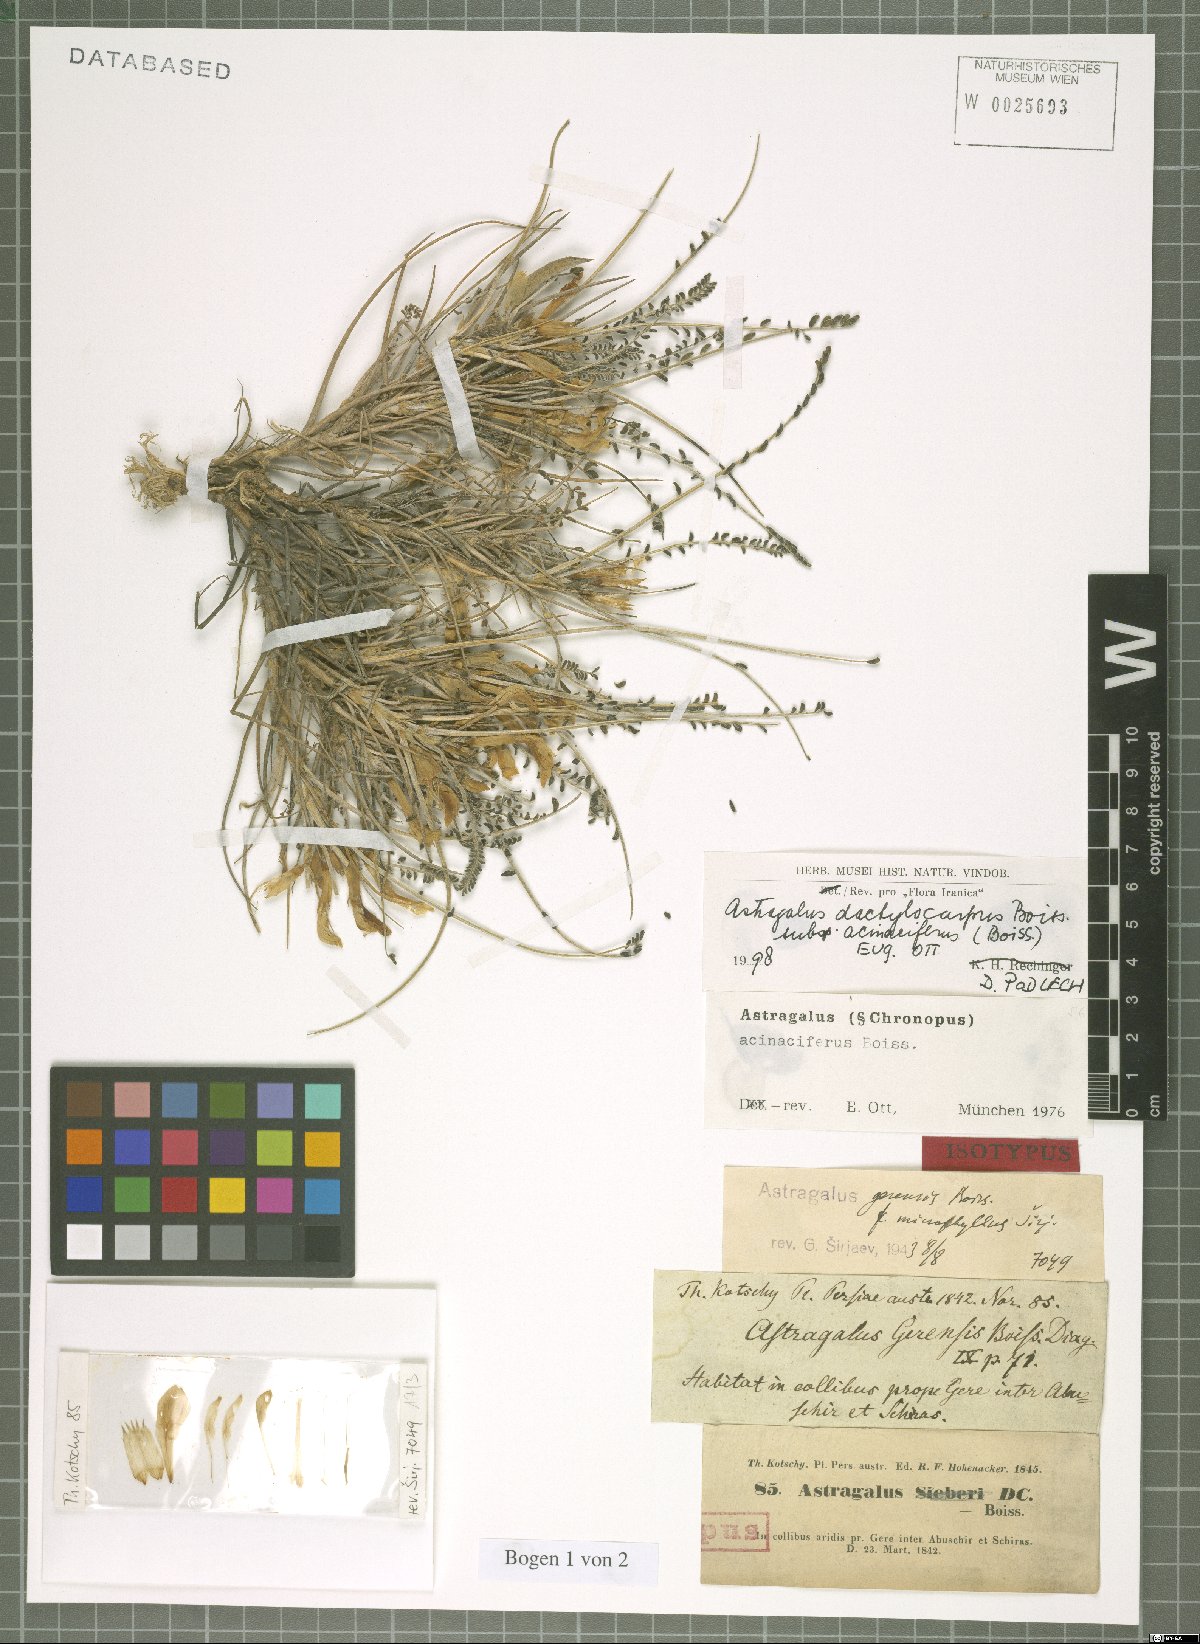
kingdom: Plantae
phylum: Tracheophyta
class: Magnoliopsida
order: Fabales
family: Fabaceae
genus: Astragalus
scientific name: Astragalus dactylocarpus
